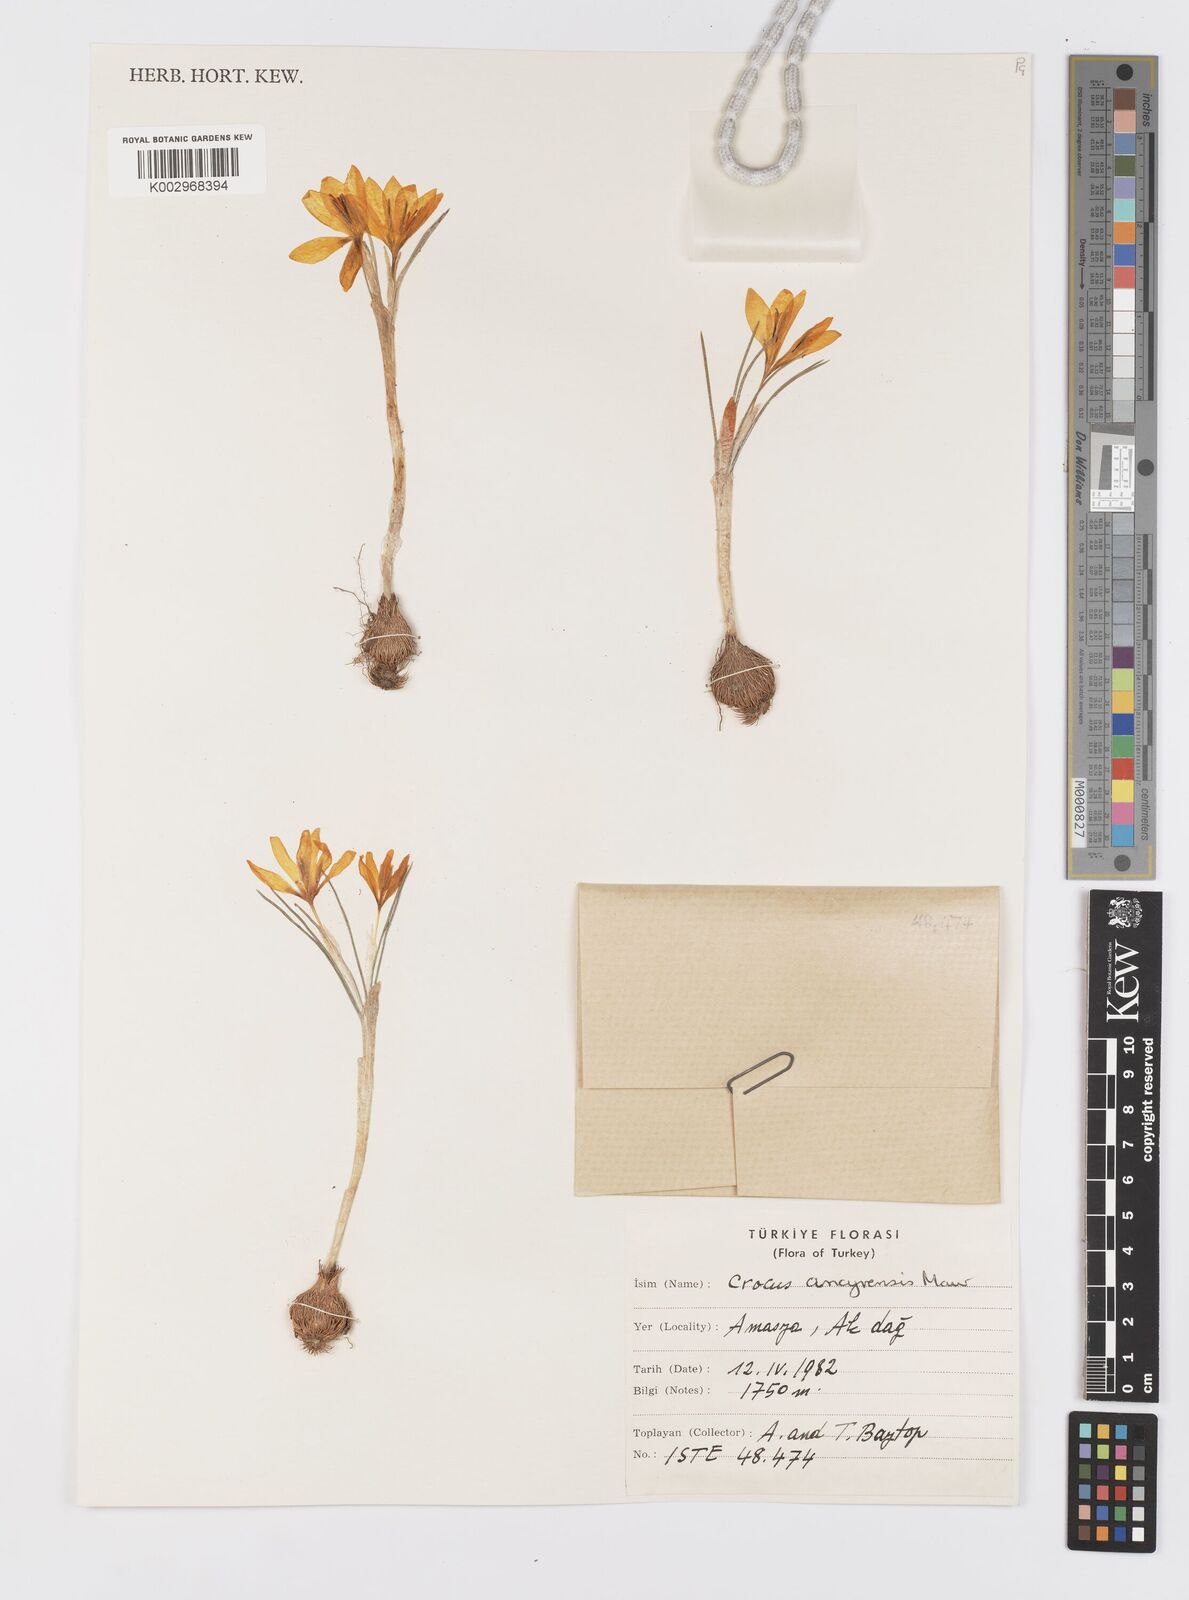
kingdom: Plantae
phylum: Tracheophyta
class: Liliopsida
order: Asparagales
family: Iridaceae
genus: Crocus
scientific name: Crocus ancyrensis
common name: Ankara crocus
